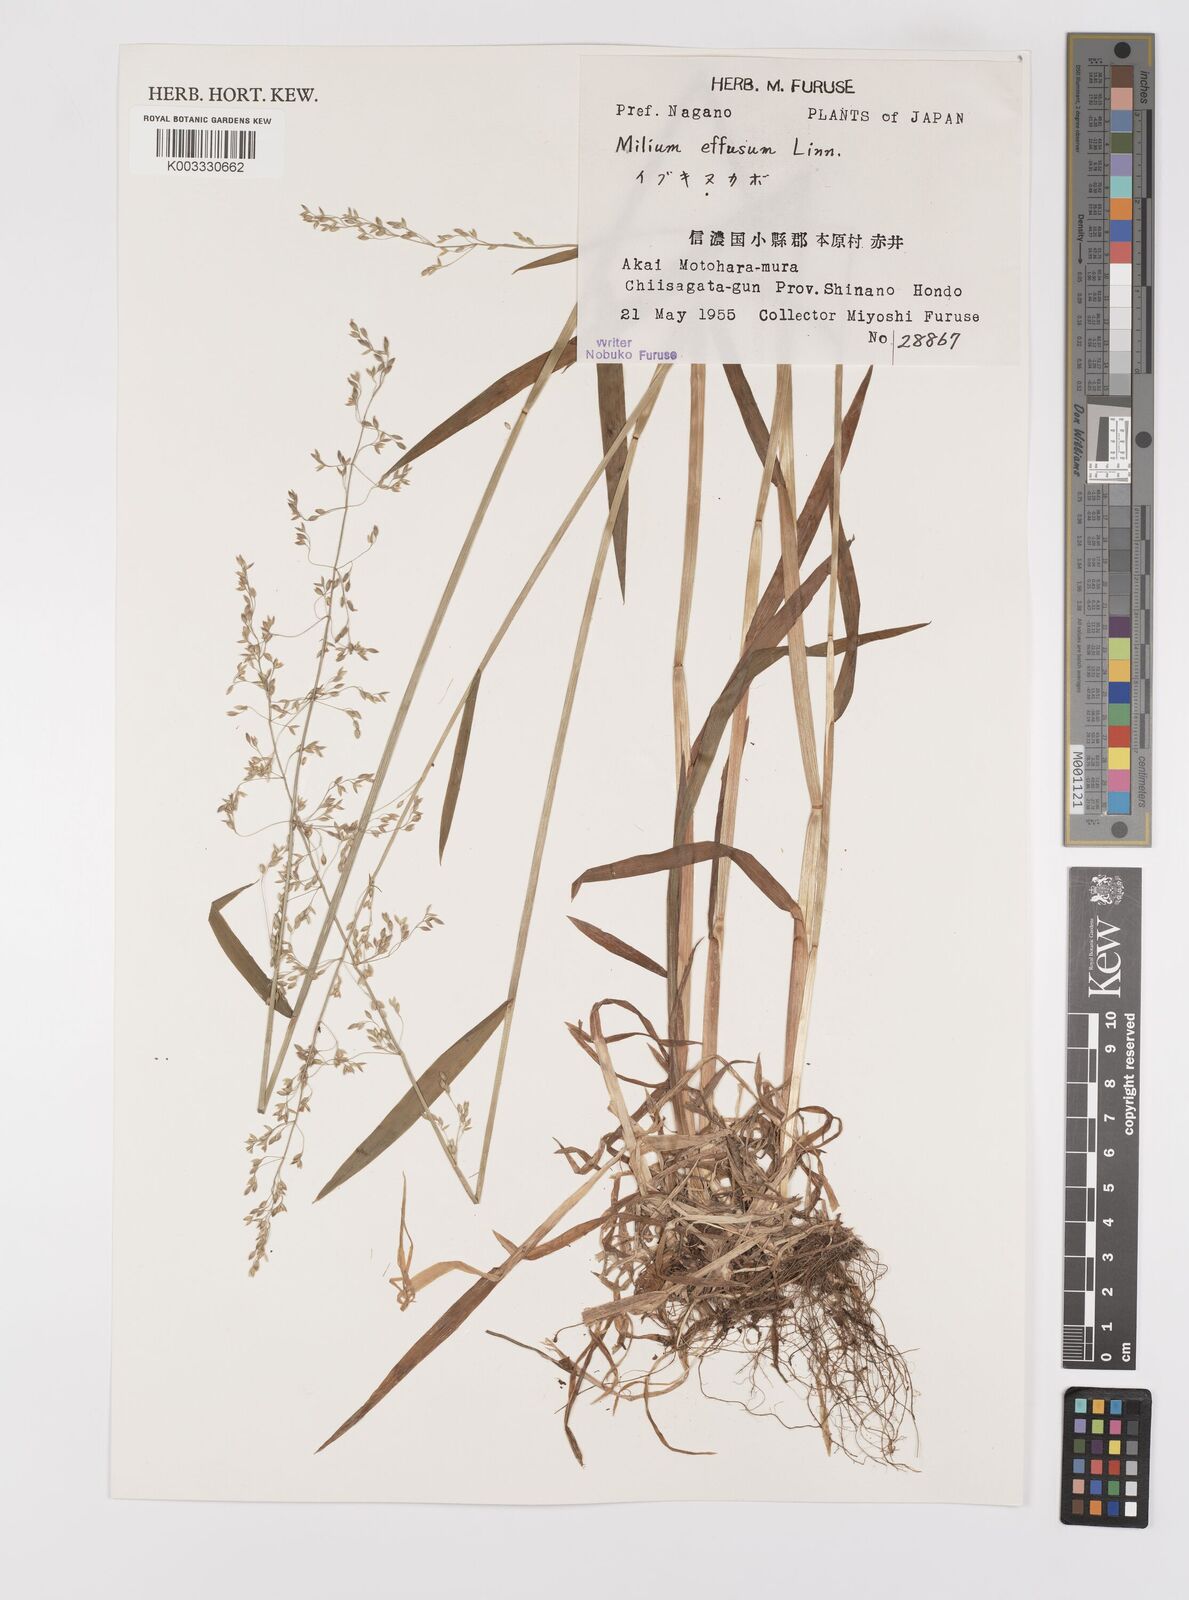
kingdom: Plantae
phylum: Tracheophyta
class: Liliopsida
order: Poales
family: Poaceae
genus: Milium
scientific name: Milium effusum
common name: Wood millet
